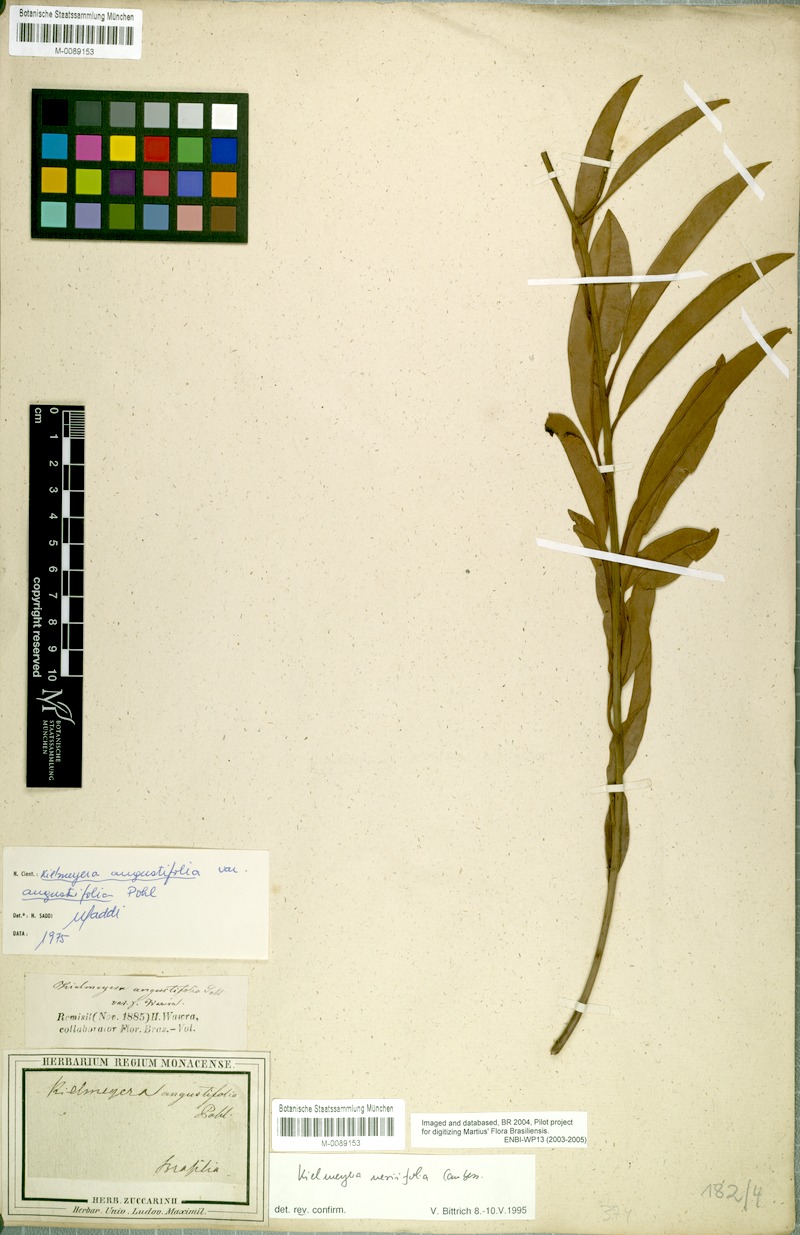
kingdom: Plantae
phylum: Tracheophyta
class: Magnoliopsida
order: Malpighiales
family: Calophyllaceae
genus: Kielmeyera
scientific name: Kielmeyera neriifolia
